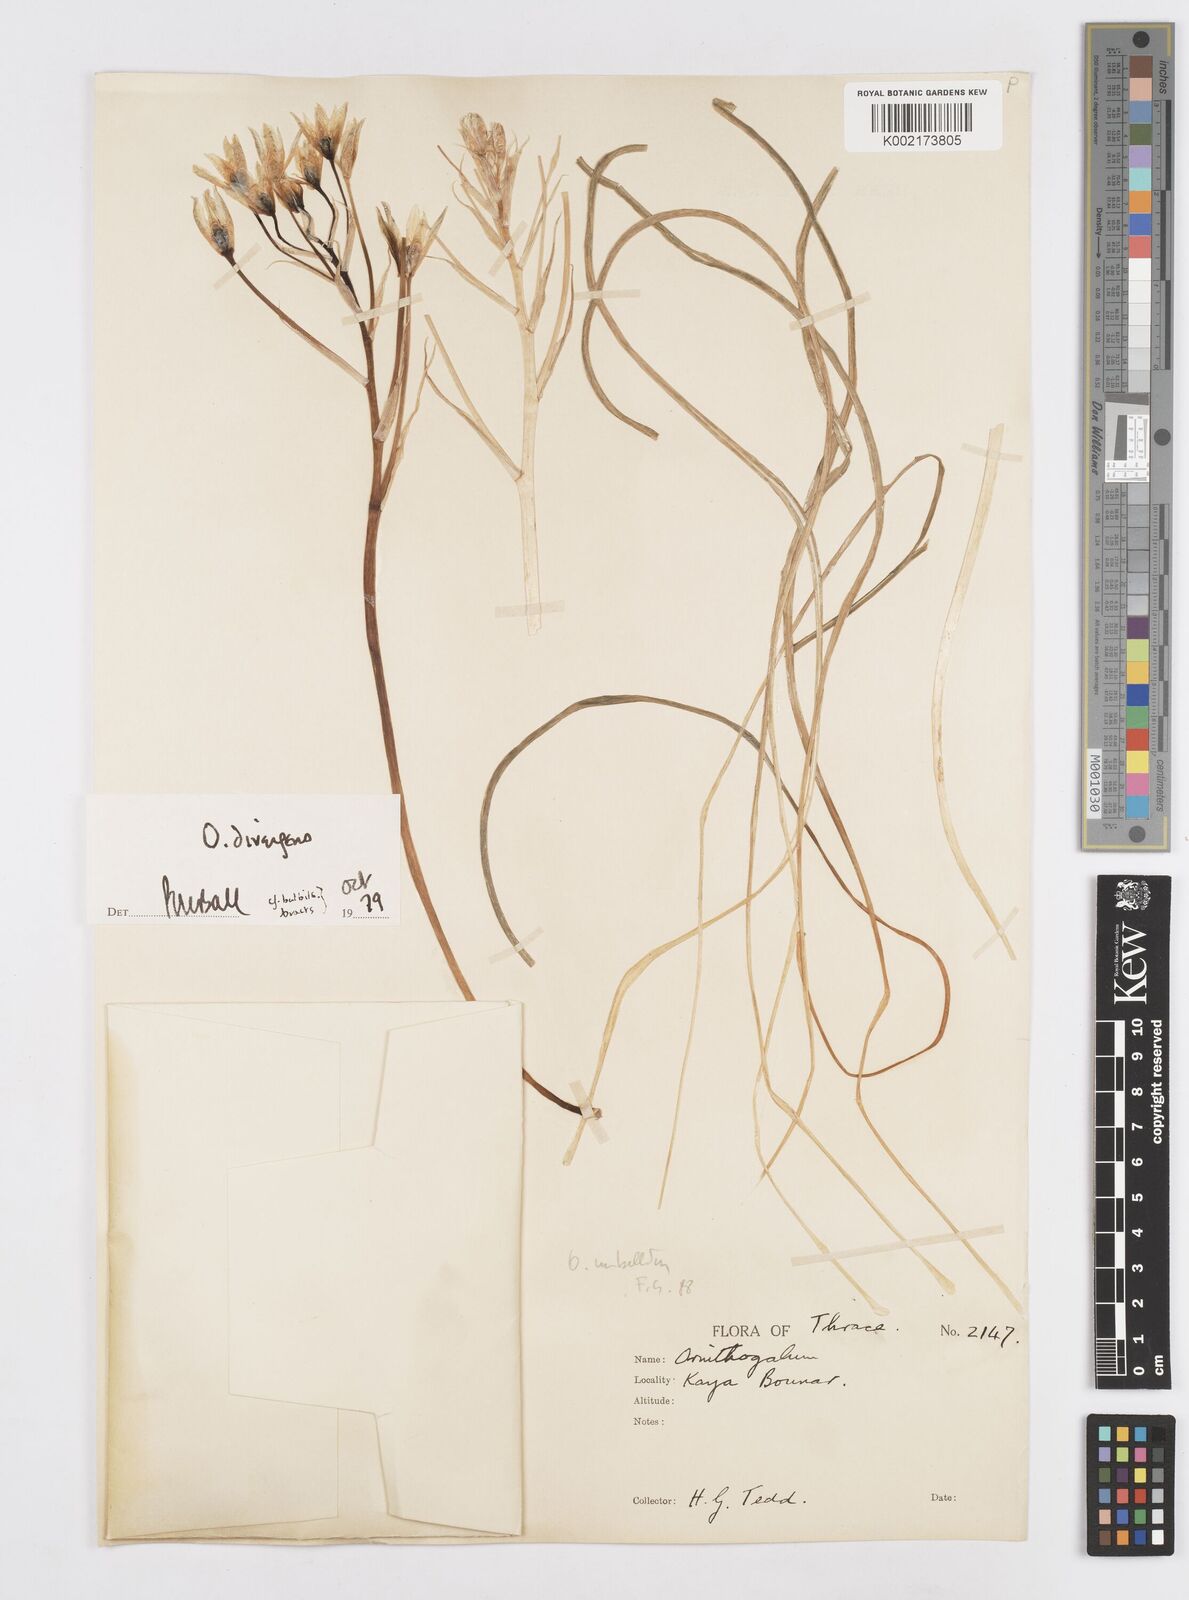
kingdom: Plantae
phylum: Tracheophyta
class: Liliopsida
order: Asparagales
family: Asparagaceae
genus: Ornithogalum
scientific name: Ornithogalum umbellatum
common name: Garden star-of-bethlehem
